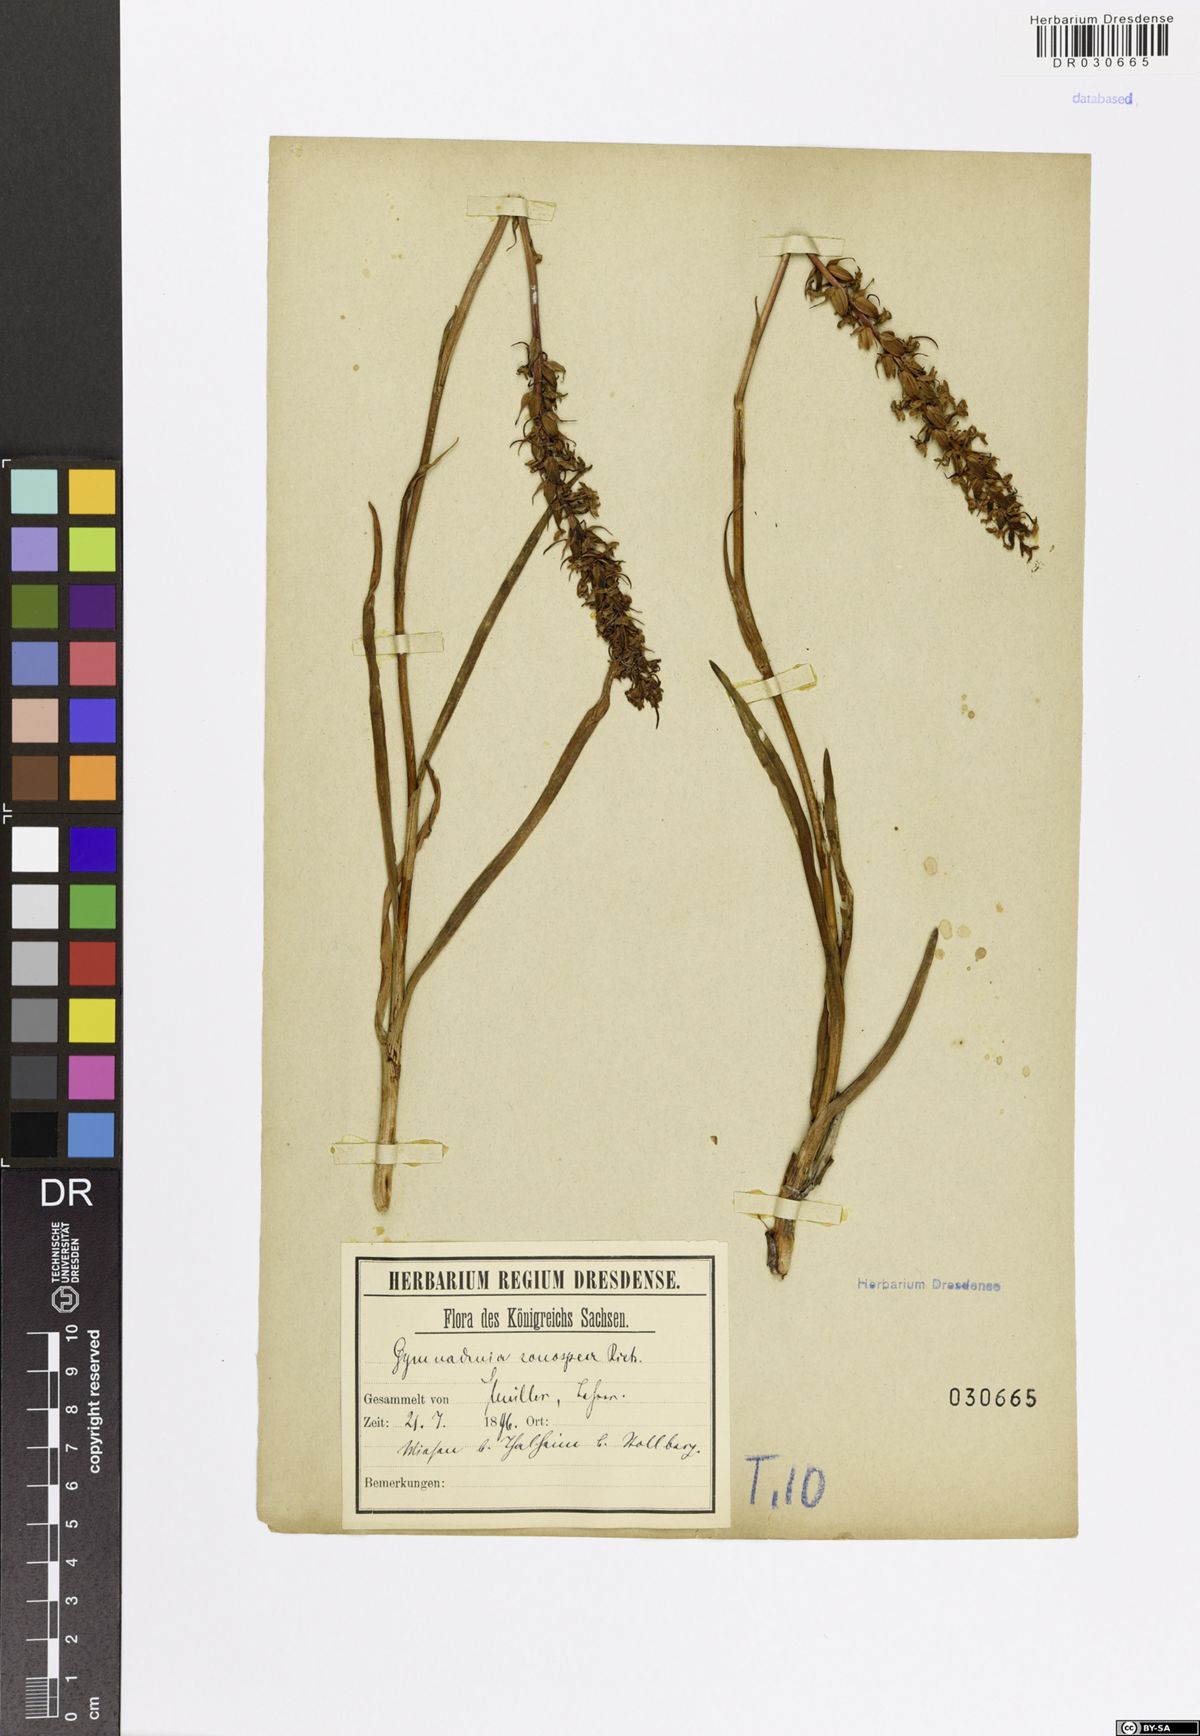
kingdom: Plantae
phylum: Tracheophyta
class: Liliopsida
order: Asparagales
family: Orchidaceae
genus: Gymnadenia
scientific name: Gymnadenia conopsea
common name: Fragrant orchid
